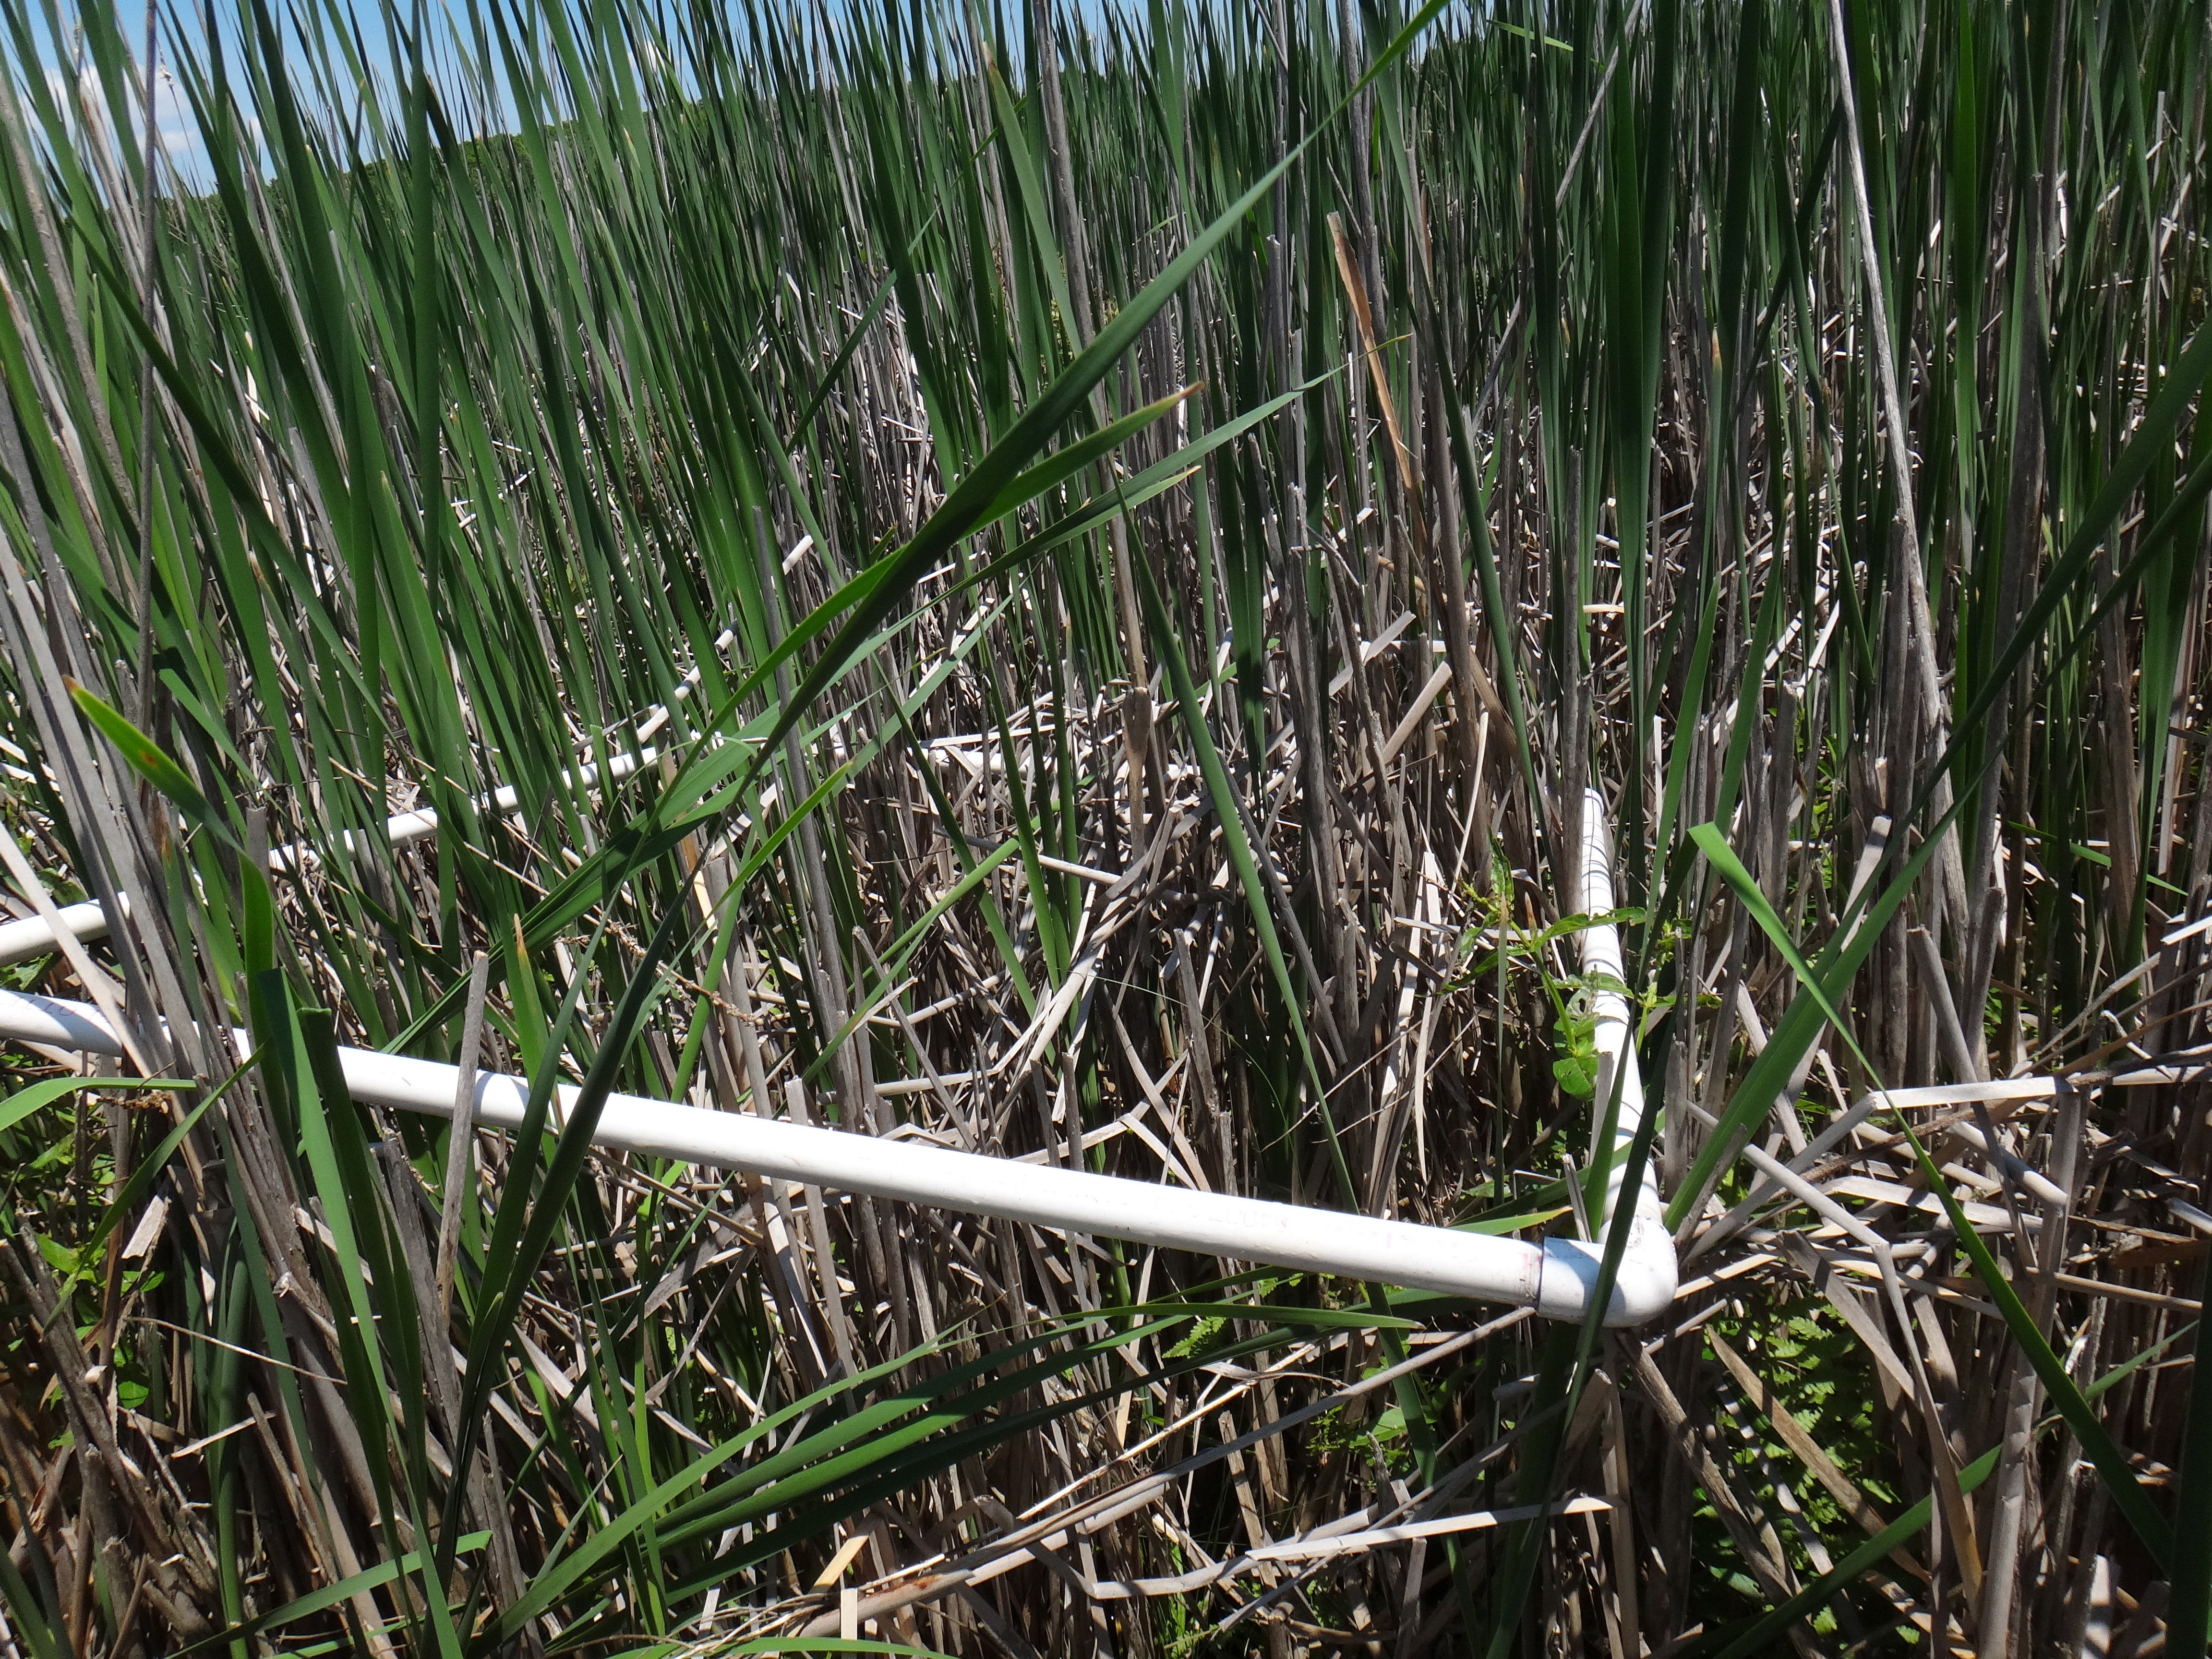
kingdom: Plantae
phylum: Tracheophyta
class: Magnoliopsida
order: Ericales
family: Primulaceae
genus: Lysimachia
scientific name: Lysimachia thyrsiflora
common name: Tufted loosestrife
